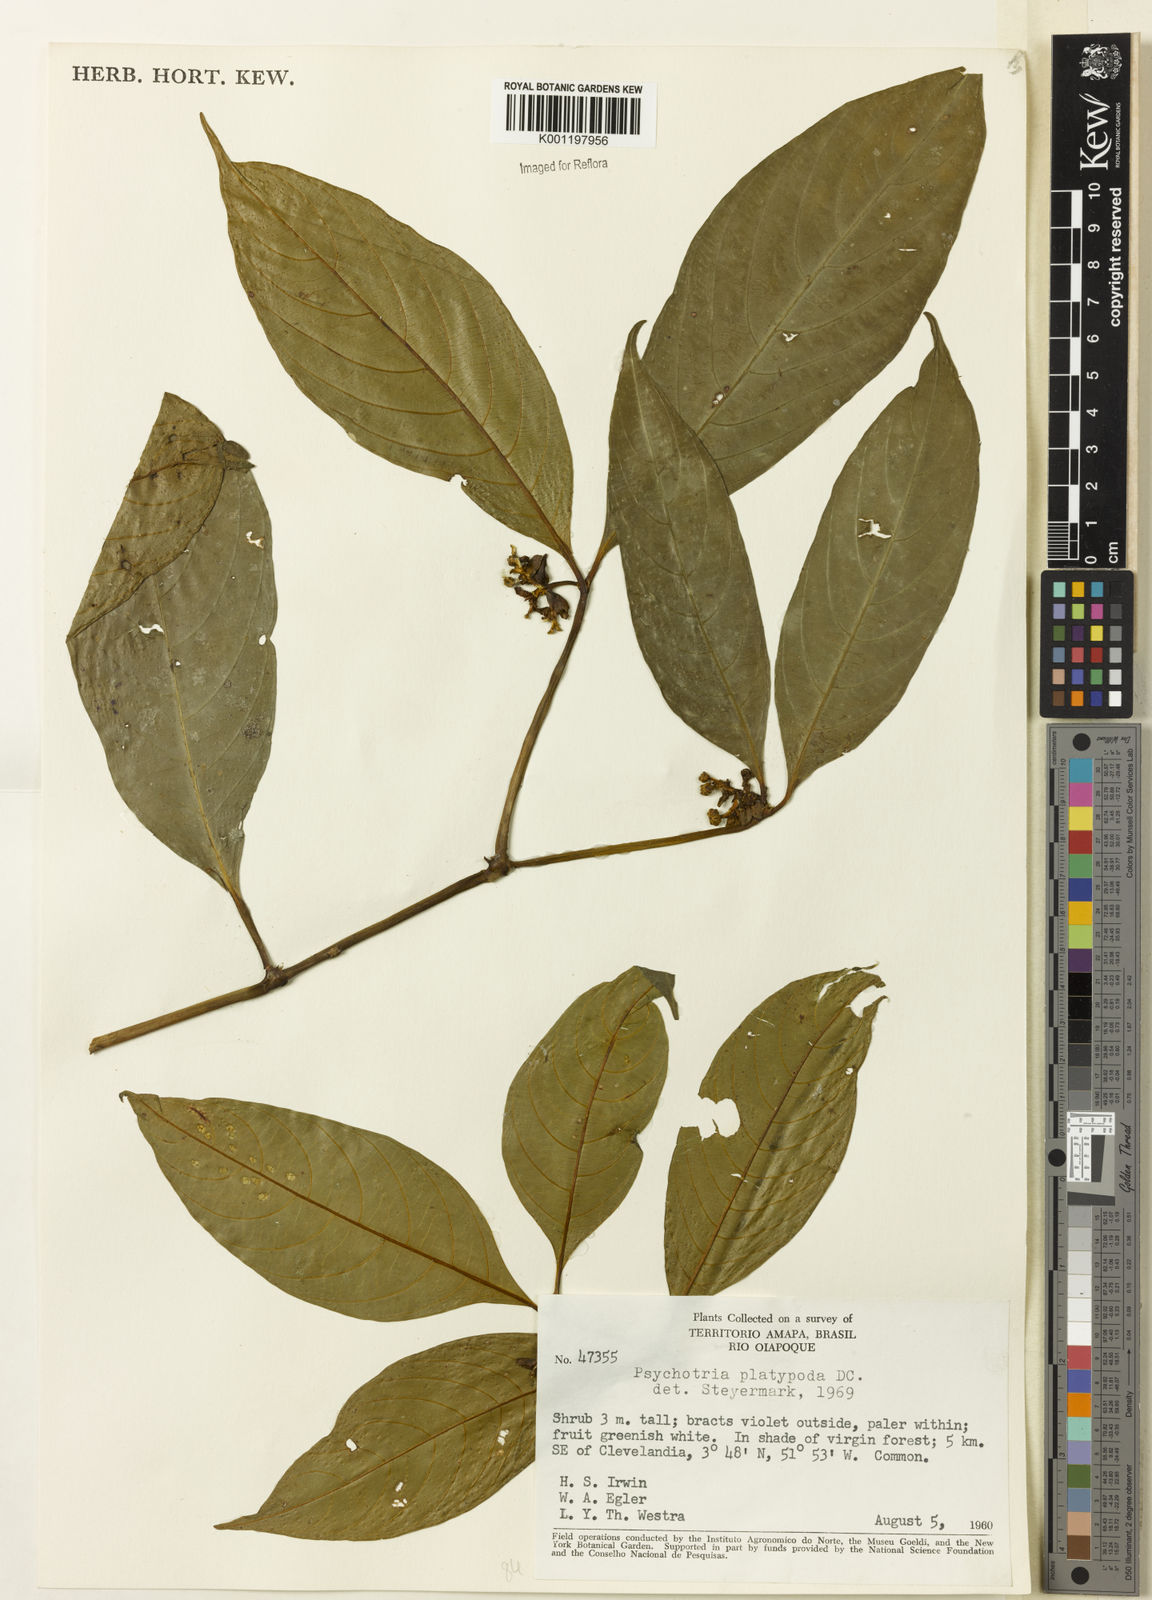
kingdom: Plantae
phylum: Tracheophyta
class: Magnoliopsida
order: Gentianales
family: Rubiaceae
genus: Palicourea
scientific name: Palicourea dichotoma
